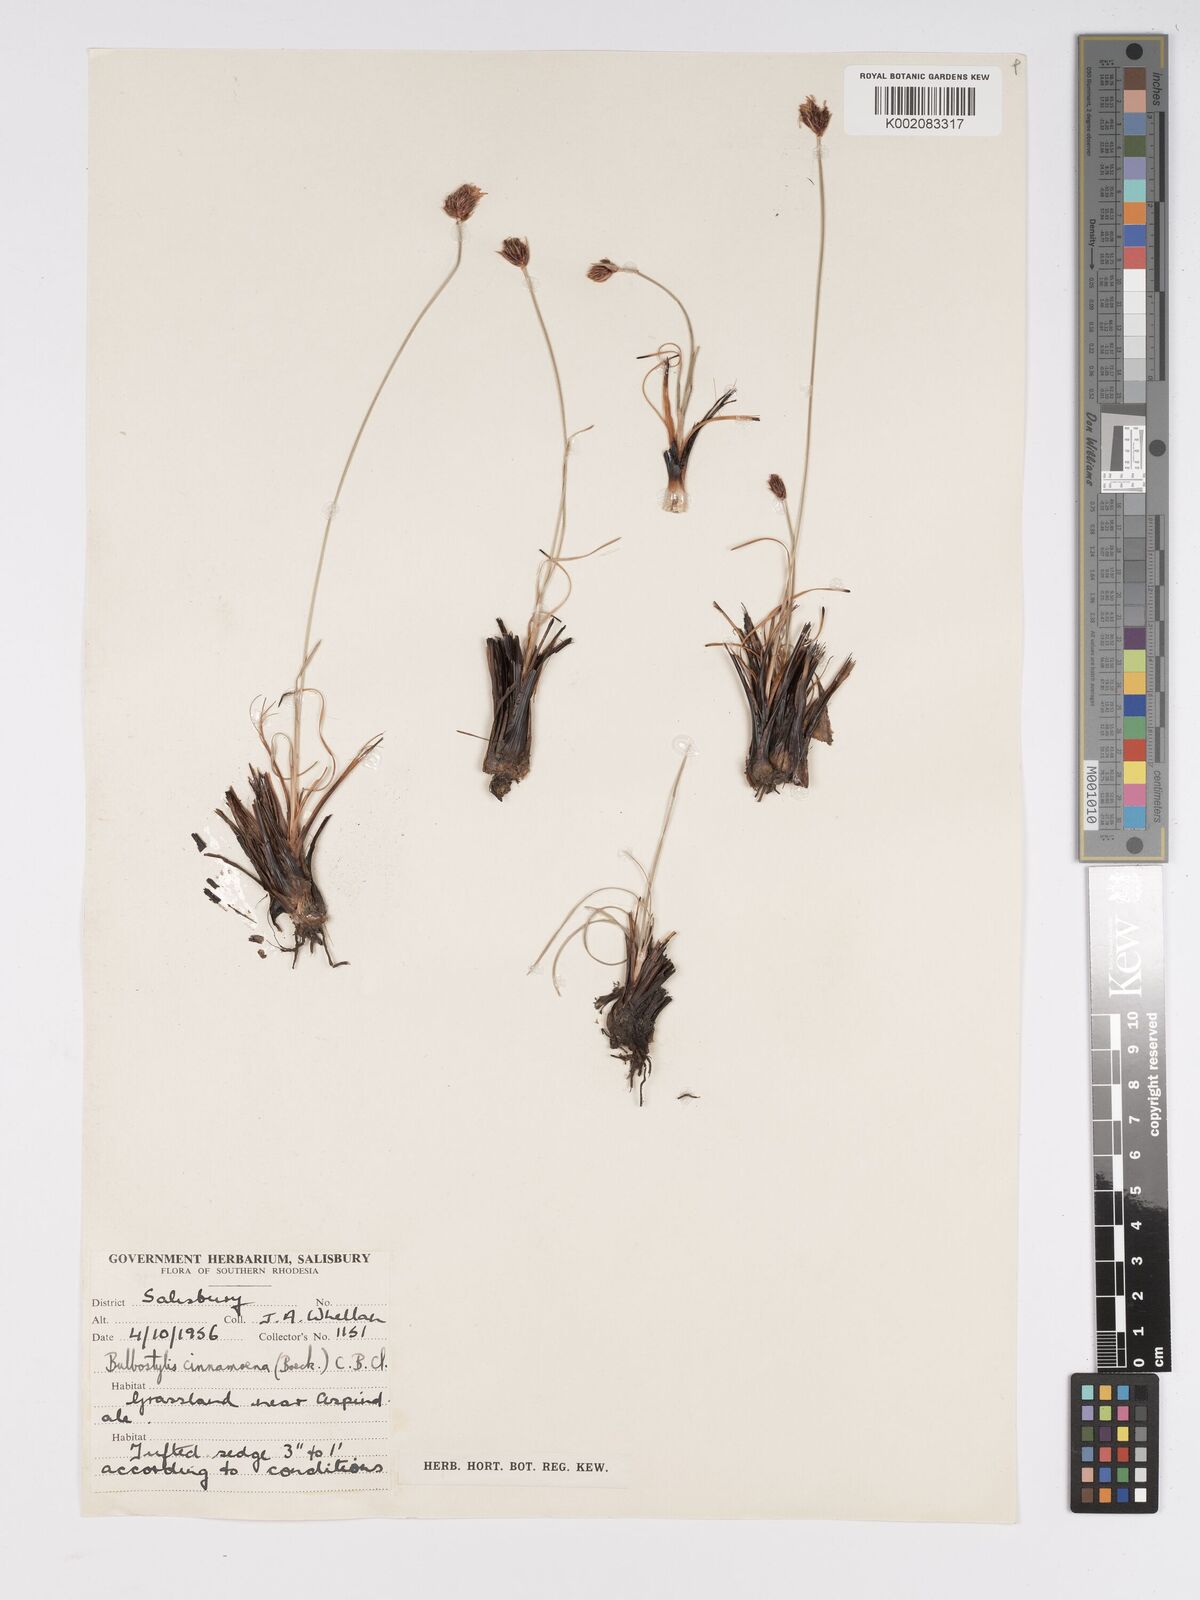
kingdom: Plantae
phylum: Tracheophyta
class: Liliopsida
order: Poales
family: Cyperaceae
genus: Bulbostylis
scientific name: Bulbostylis schoenoides
